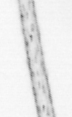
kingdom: Animalia
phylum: Arthropoda
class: Copepoda
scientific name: Copepoda
